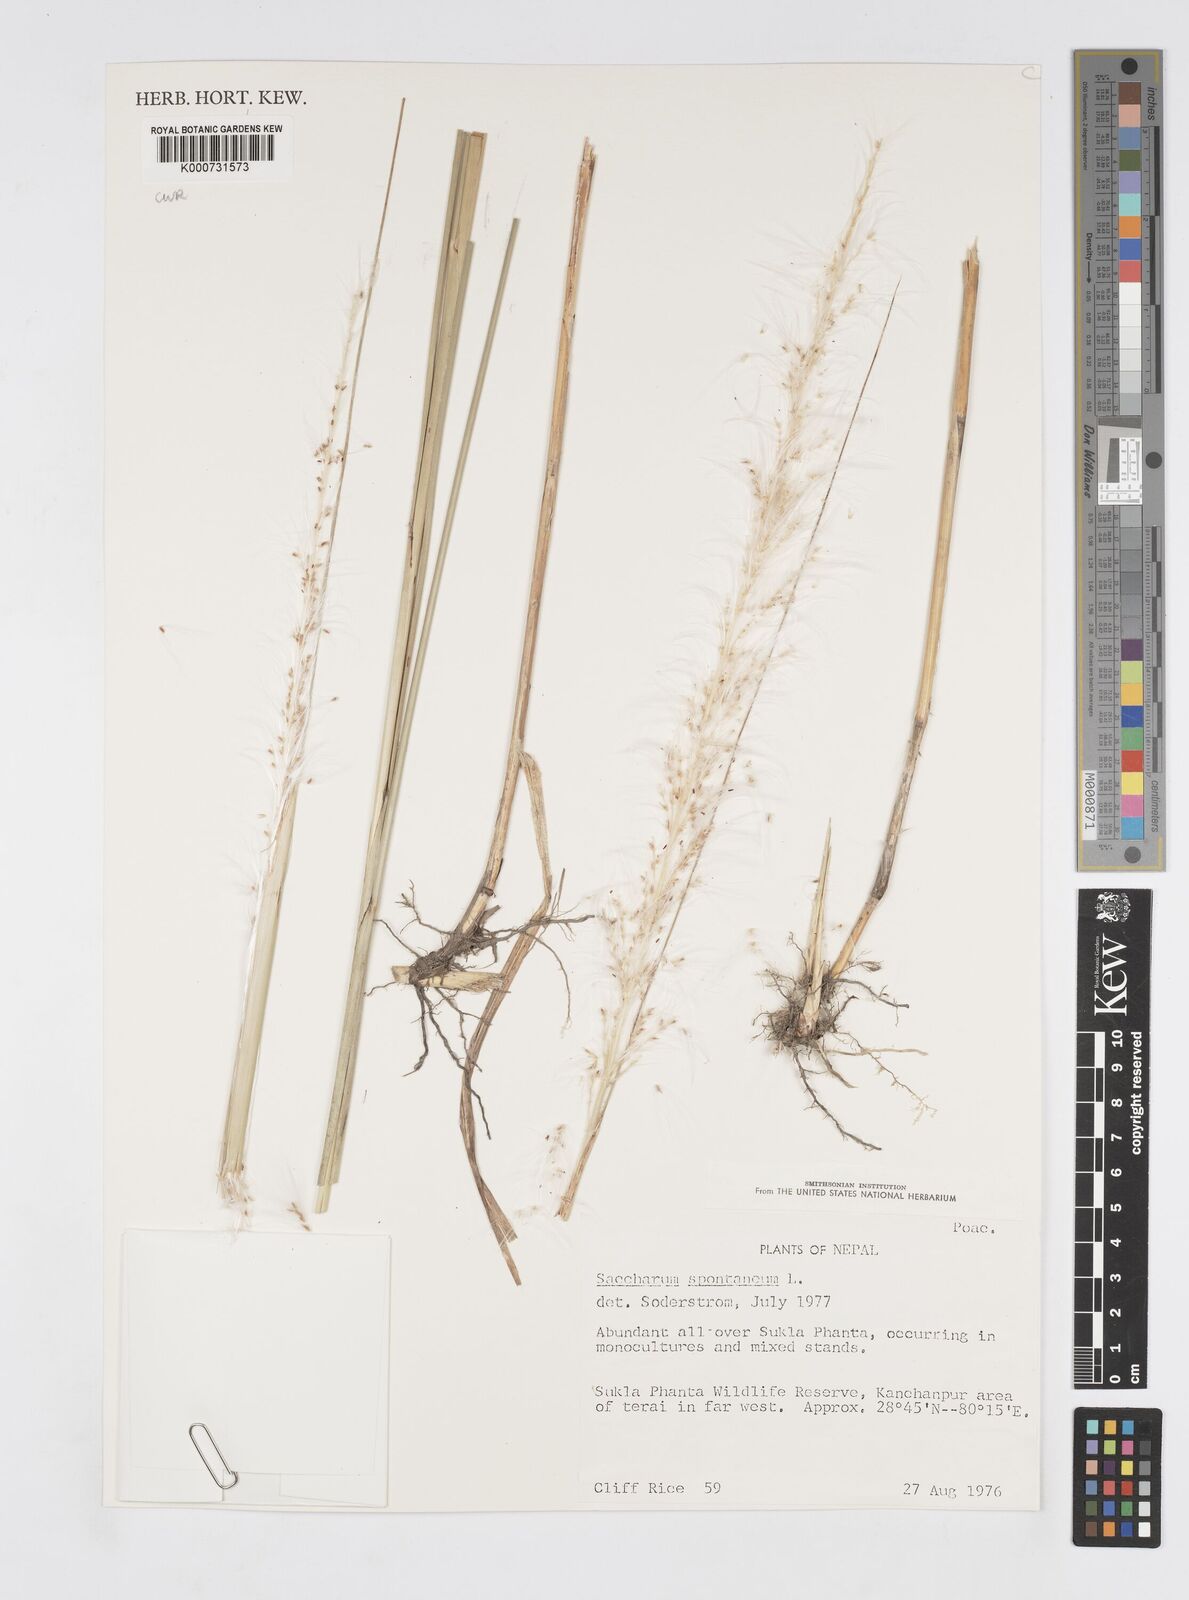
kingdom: Plantae
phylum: Tracheophyta
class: Liliopsida
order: Poales
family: Poaceae
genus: Saccharum
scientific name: Saccharum spontaneum
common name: Wild sugarcane
